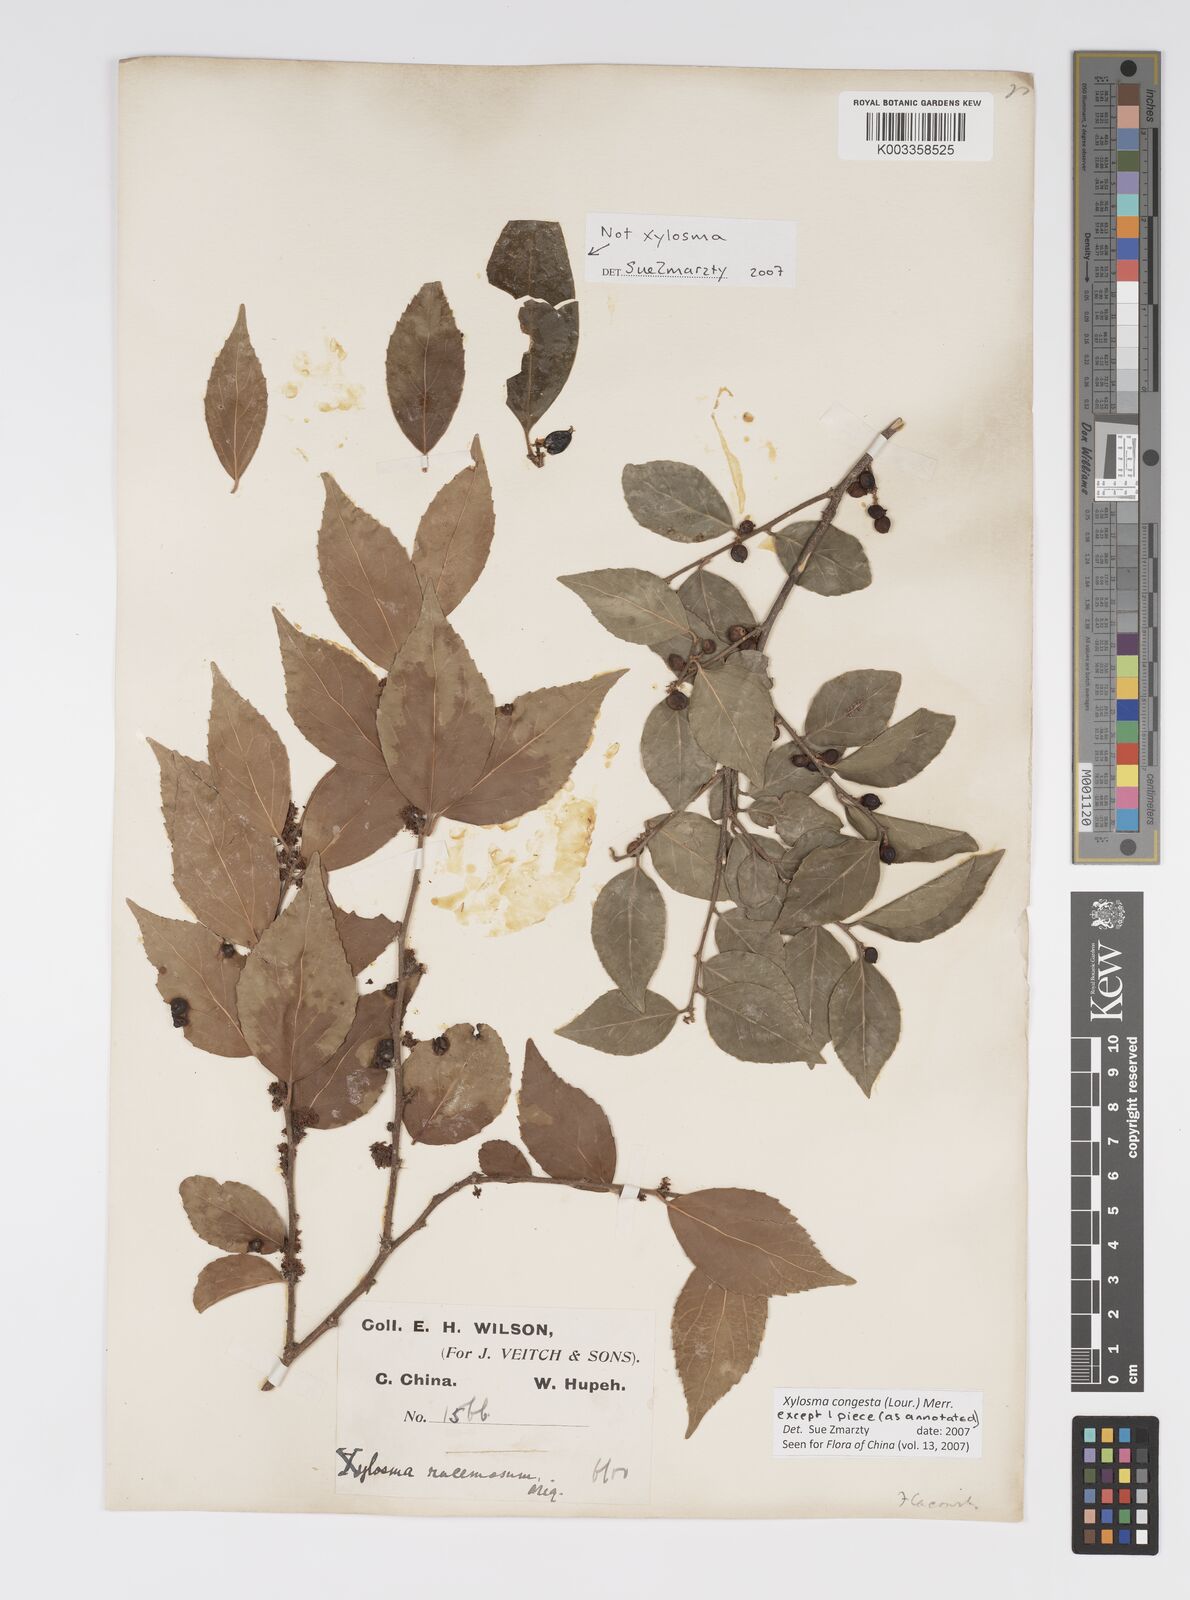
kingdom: Plantae
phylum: Tracheophyta
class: Magnoliopsida
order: Malpighiales
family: Salicaceae
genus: Xylosma
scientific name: Xylosma racemosum
